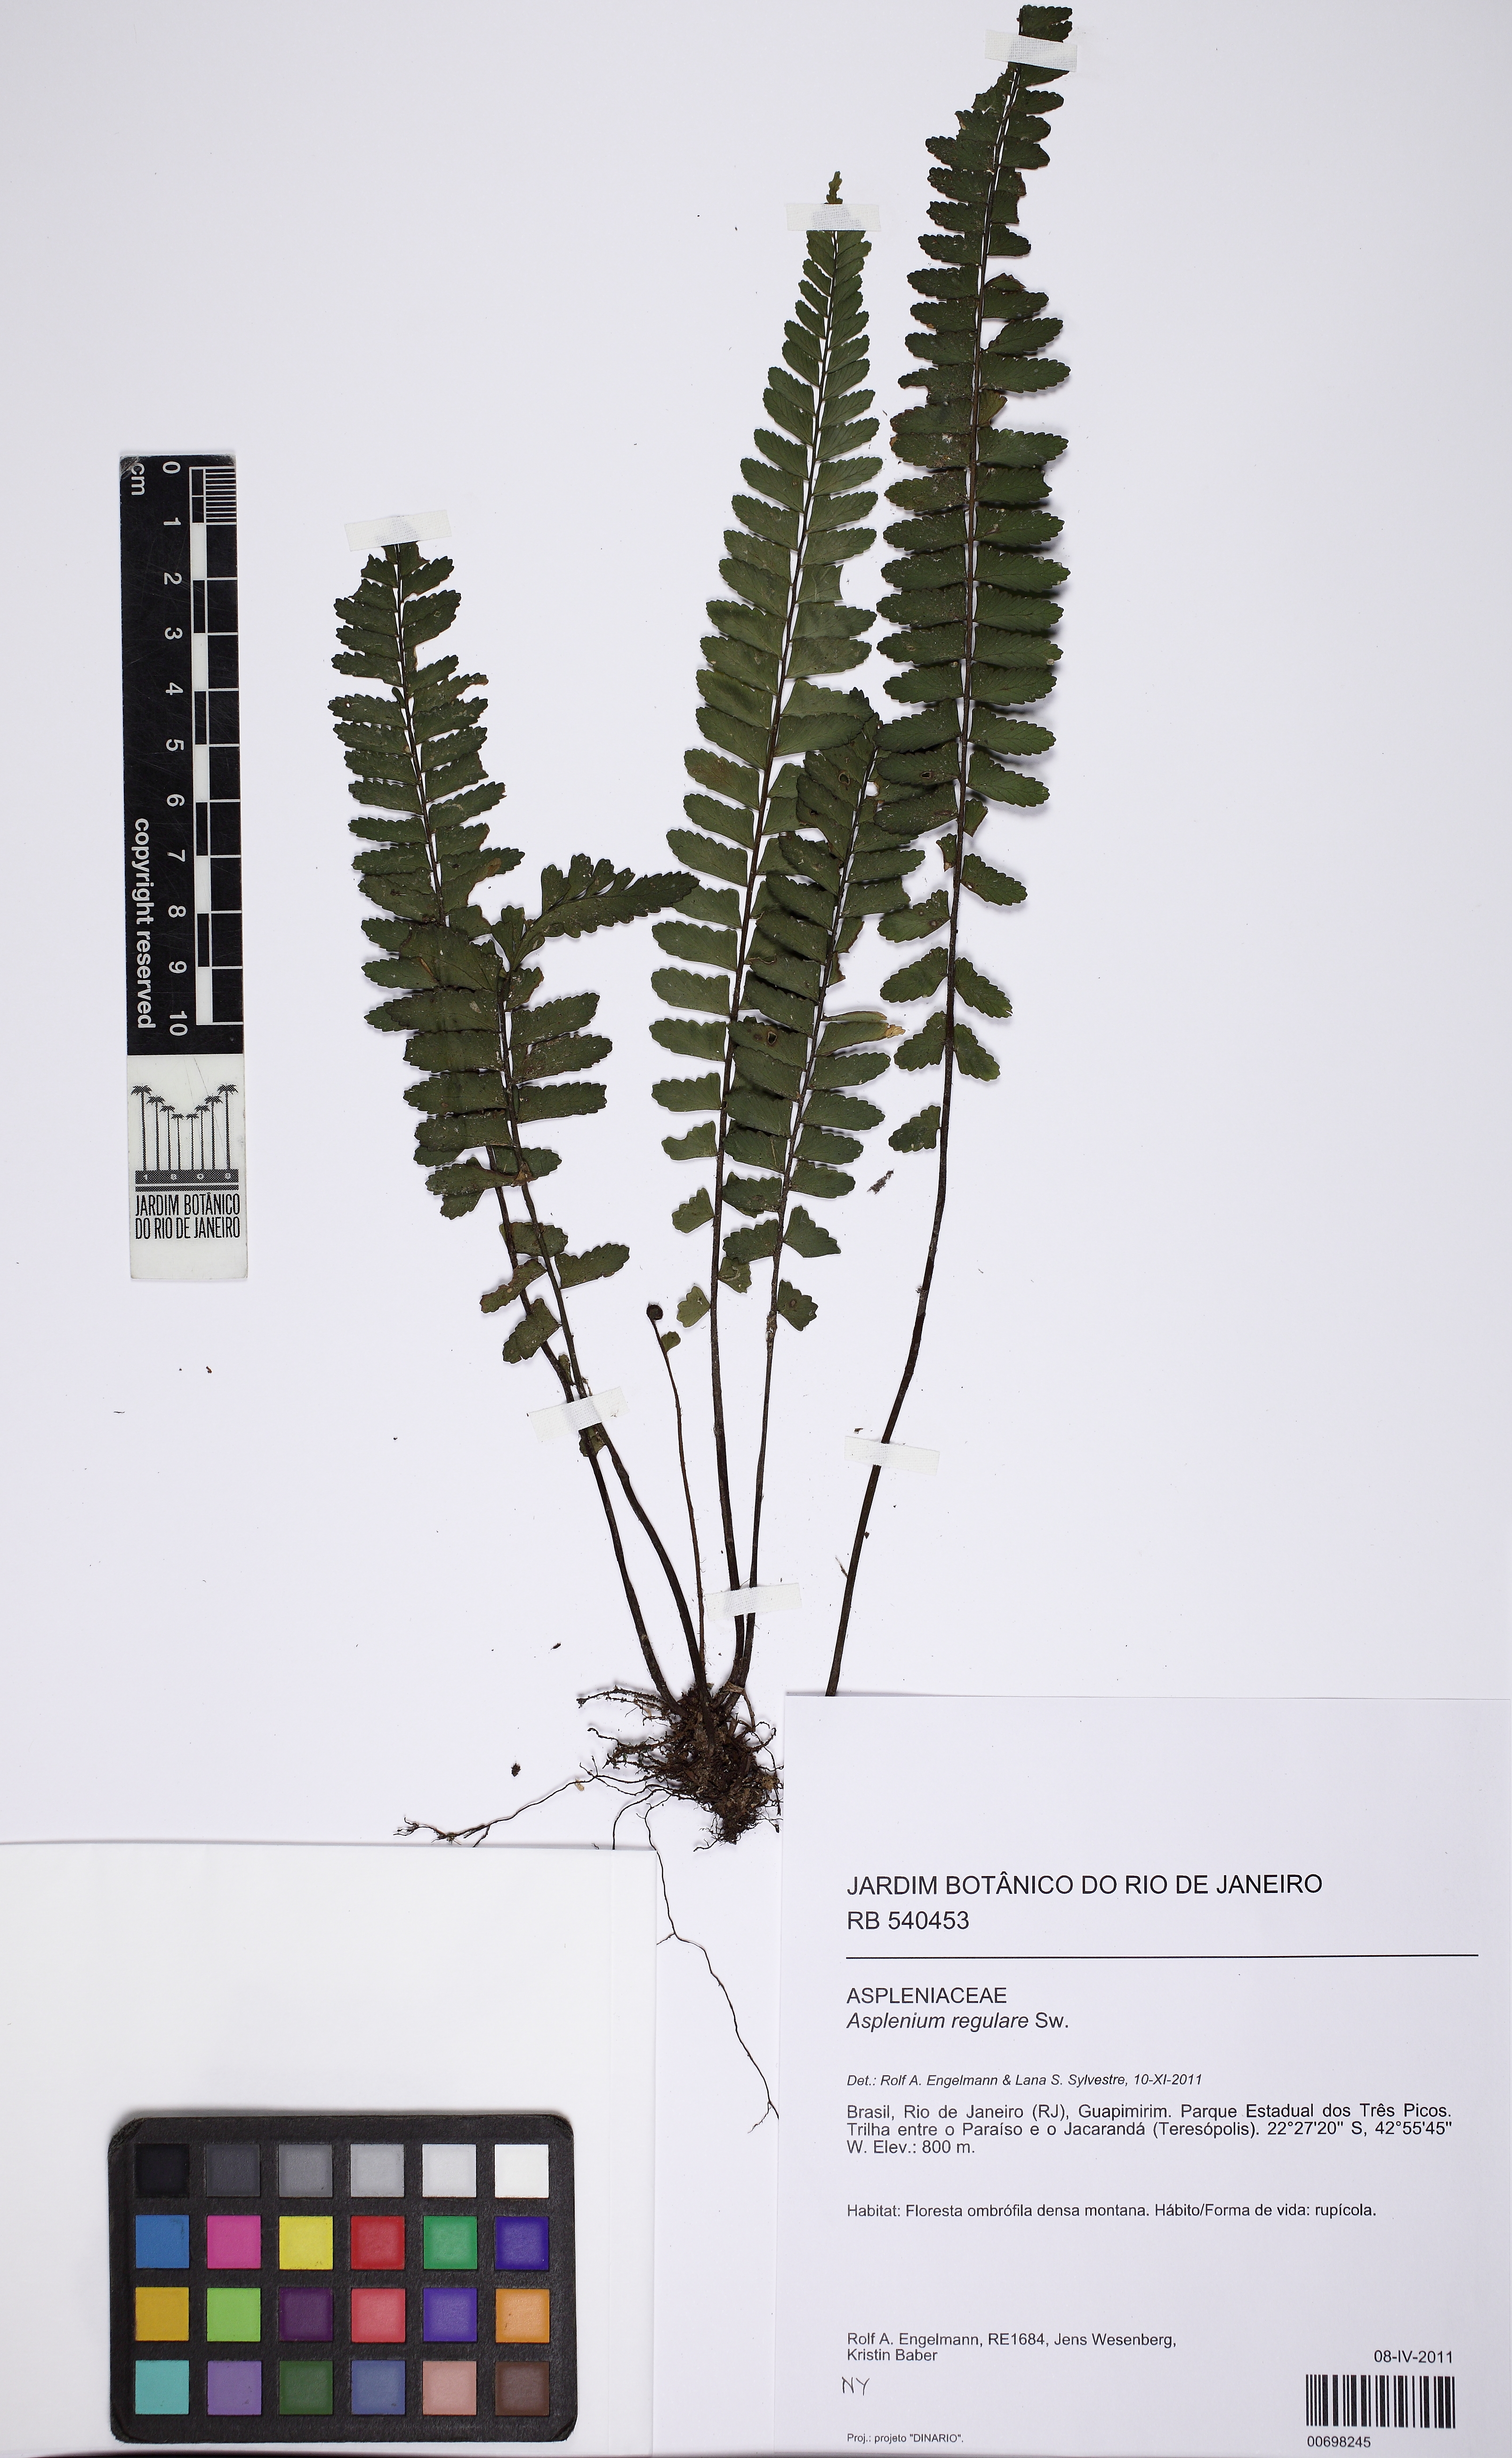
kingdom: Plantae
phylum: Tracheophyta
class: Polypodiopsida
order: Polypodiales
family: Aspleniaceae
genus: Asplenium
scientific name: Asplenium regulare
